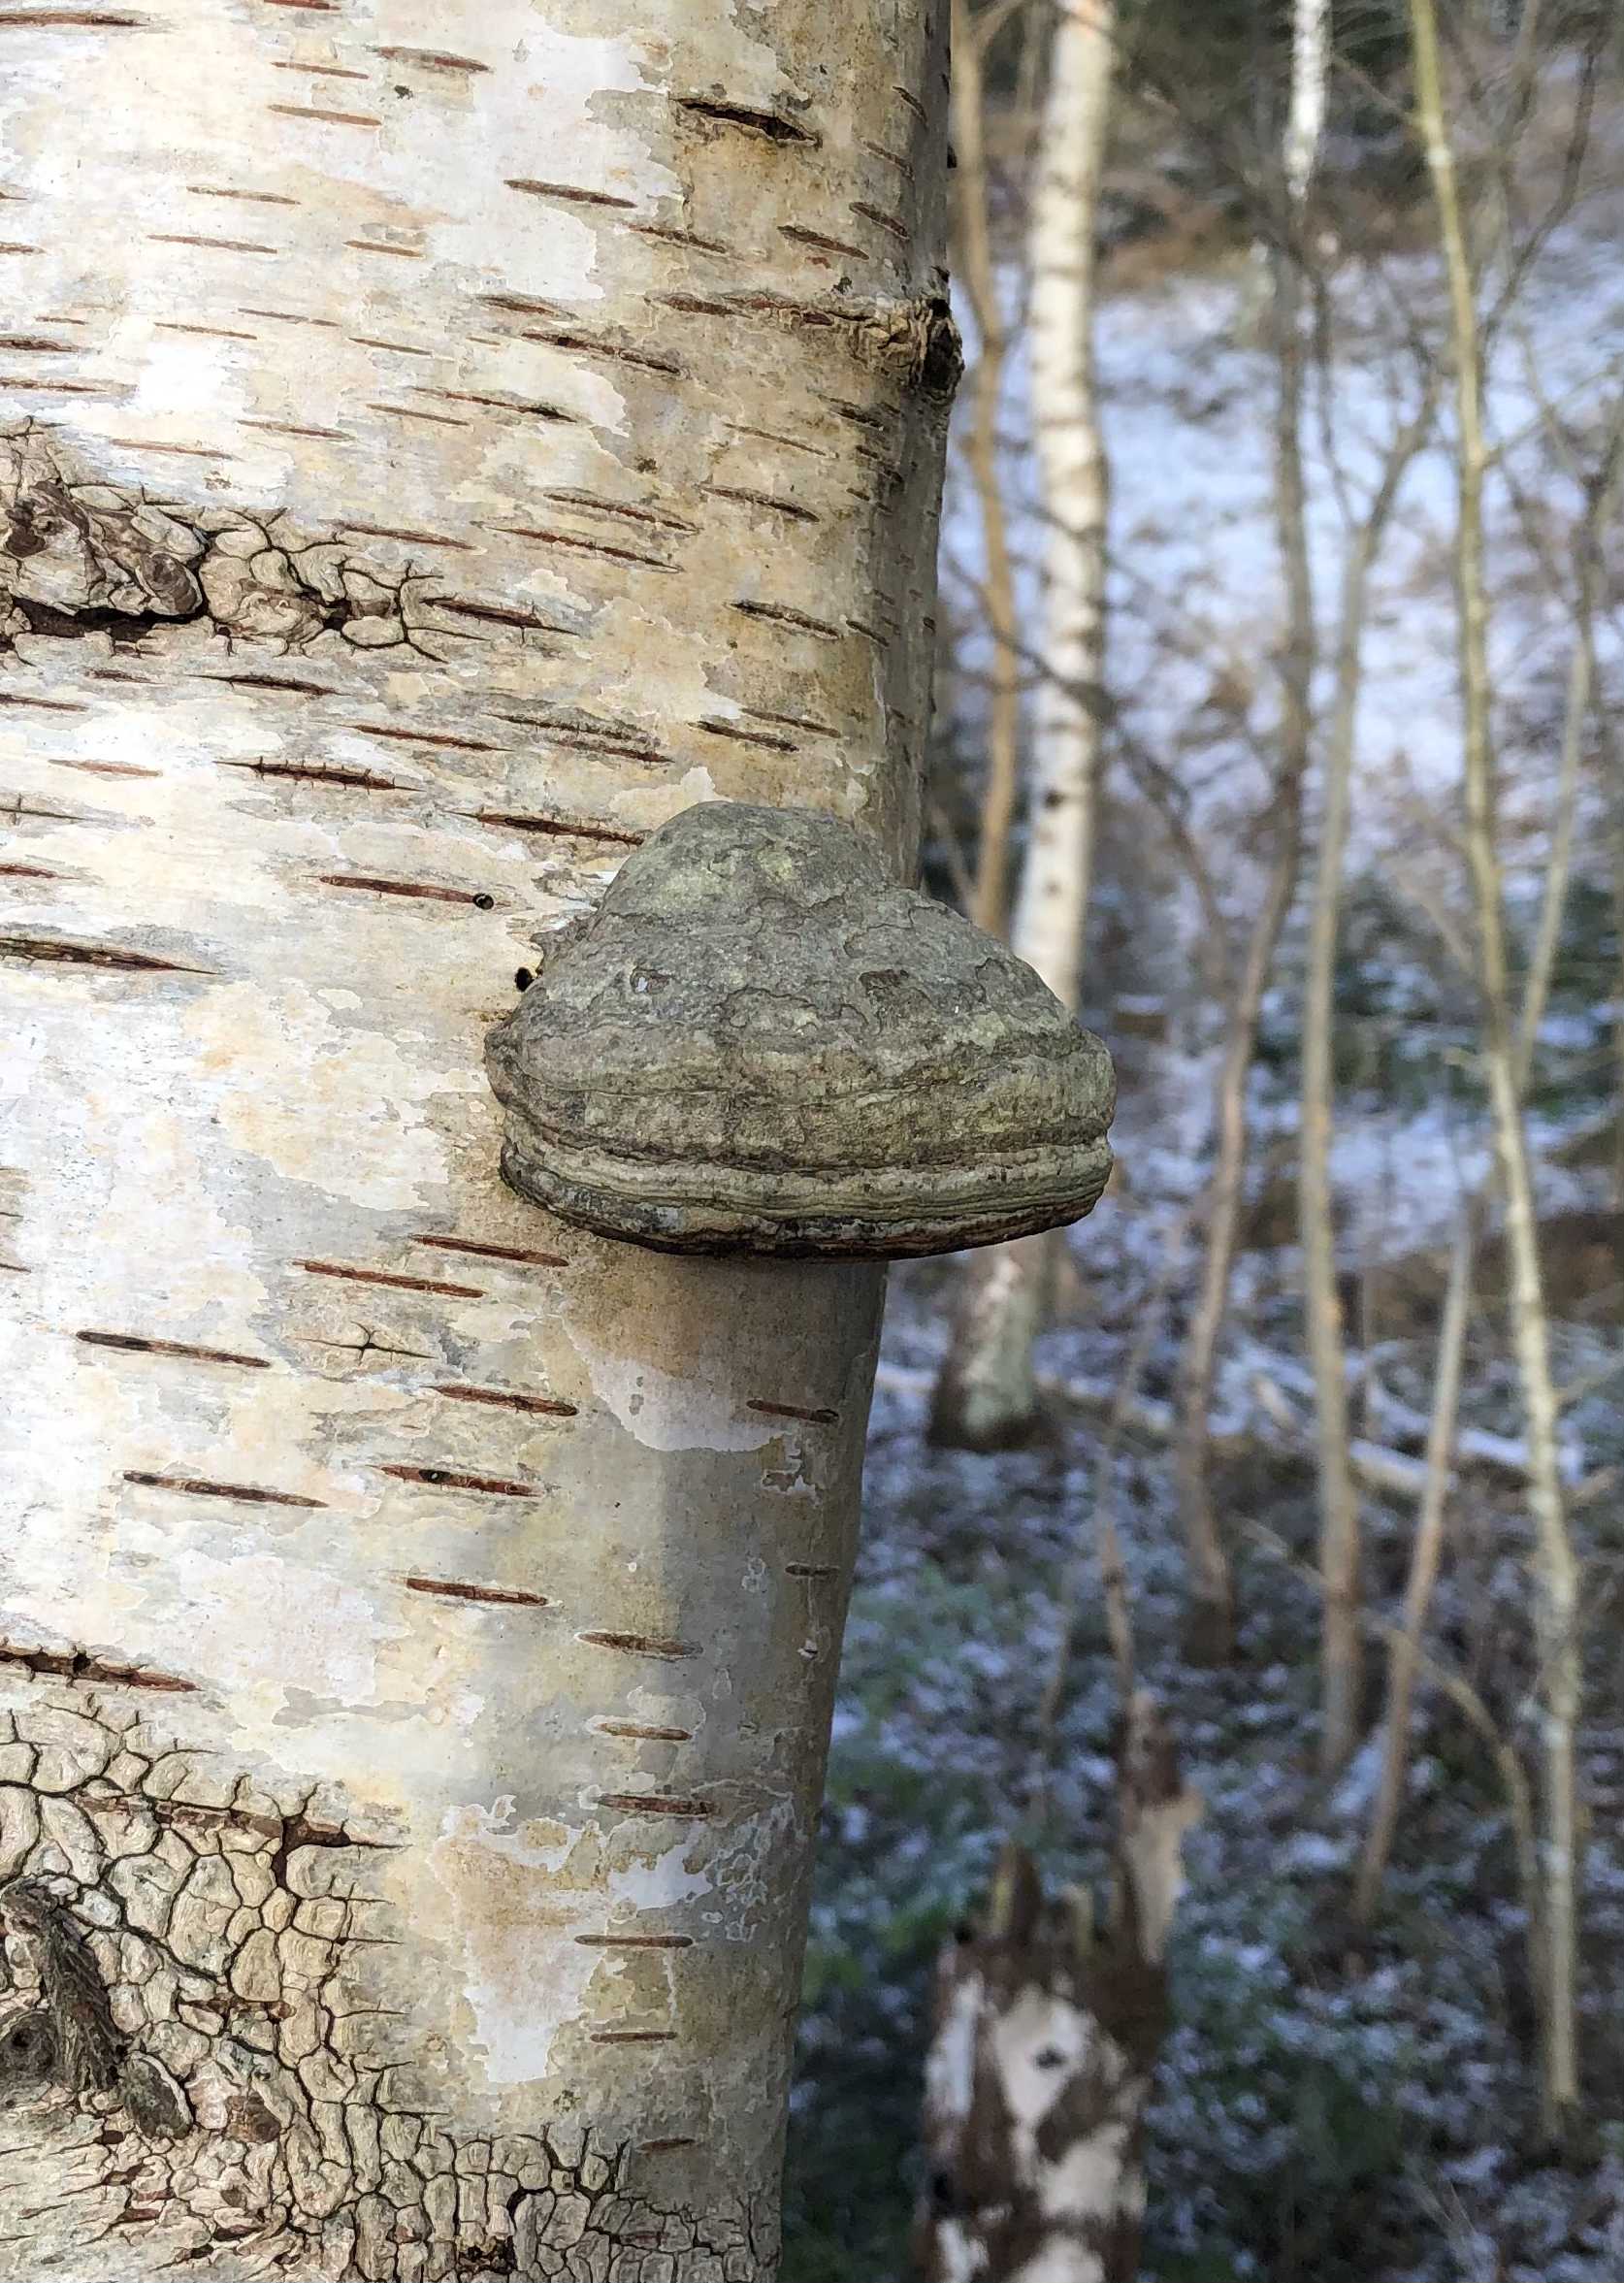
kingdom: Fungi
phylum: Basidiomycota
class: Agaricomycetes
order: Polyporales
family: Polyporaceae
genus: Fomes
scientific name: Fomes fomentarius
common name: tøndersvamp
